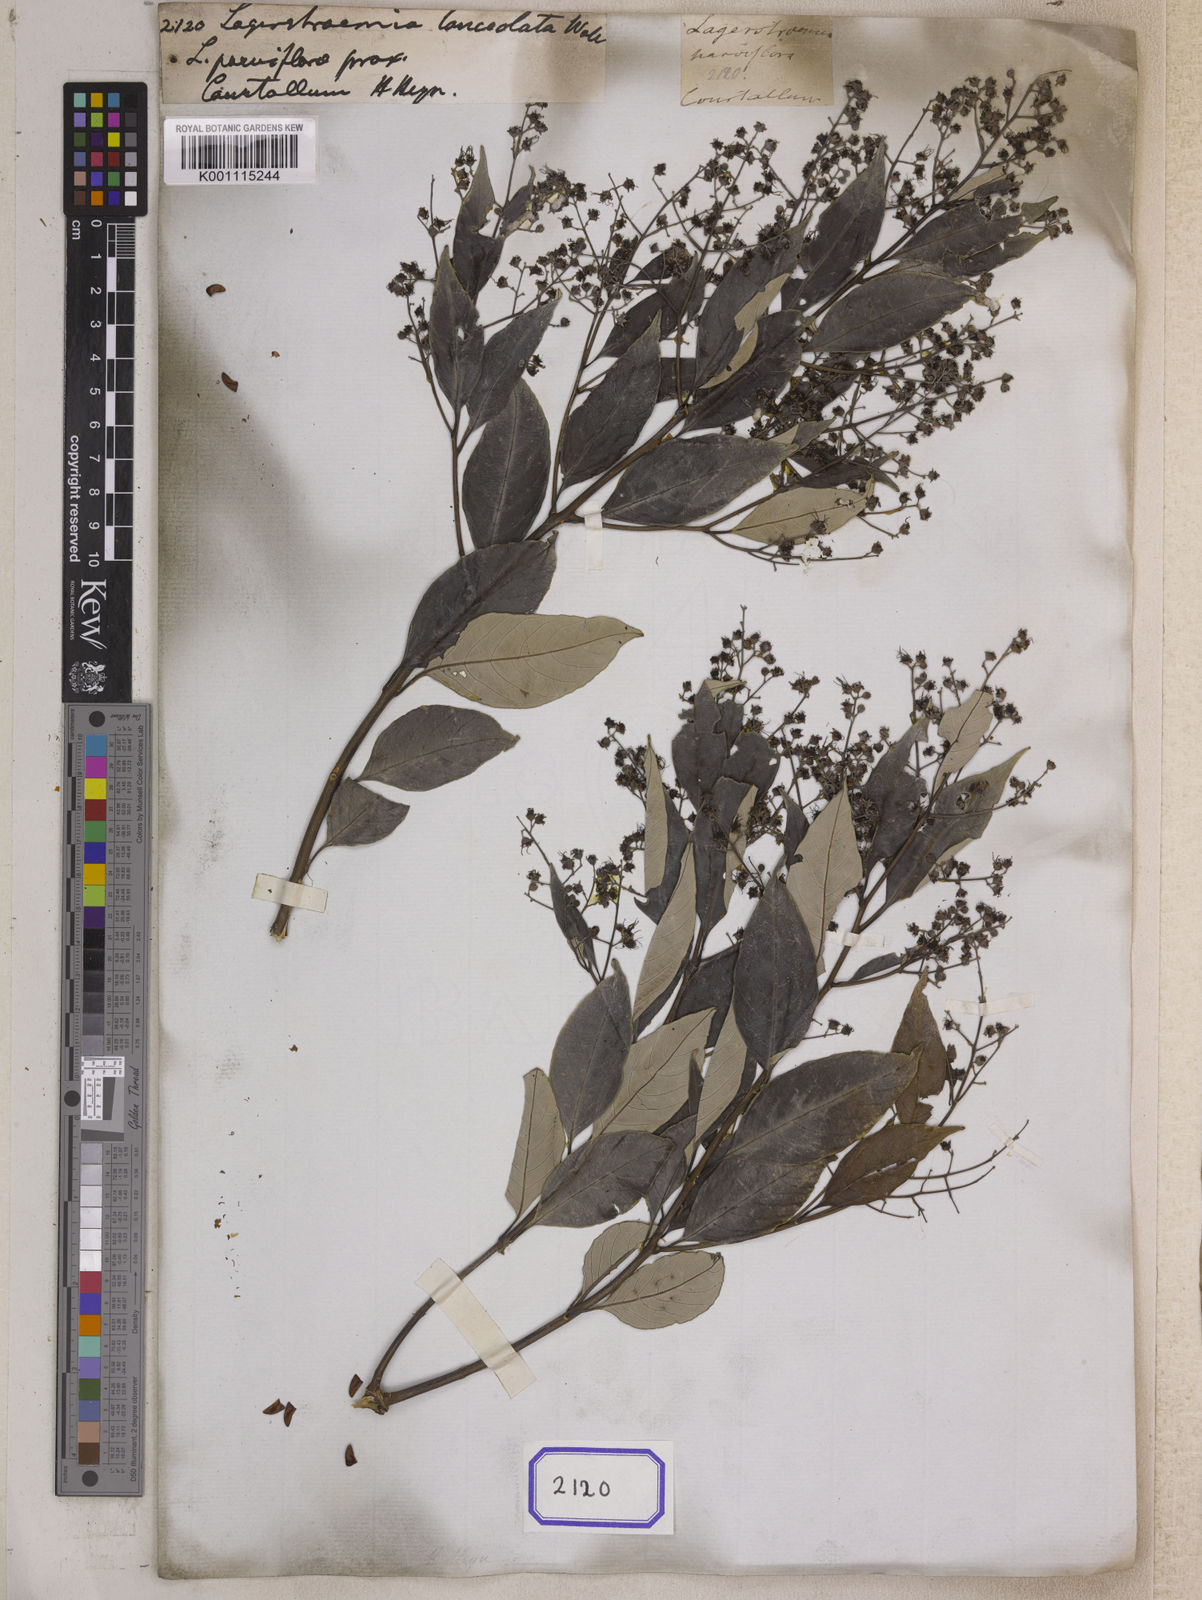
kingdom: Plantae
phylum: Tracheophyta
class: Magnoliopsida
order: Myrtales
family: Lythraceae
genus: Lagerstroemia
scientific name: Lagerstroemia
